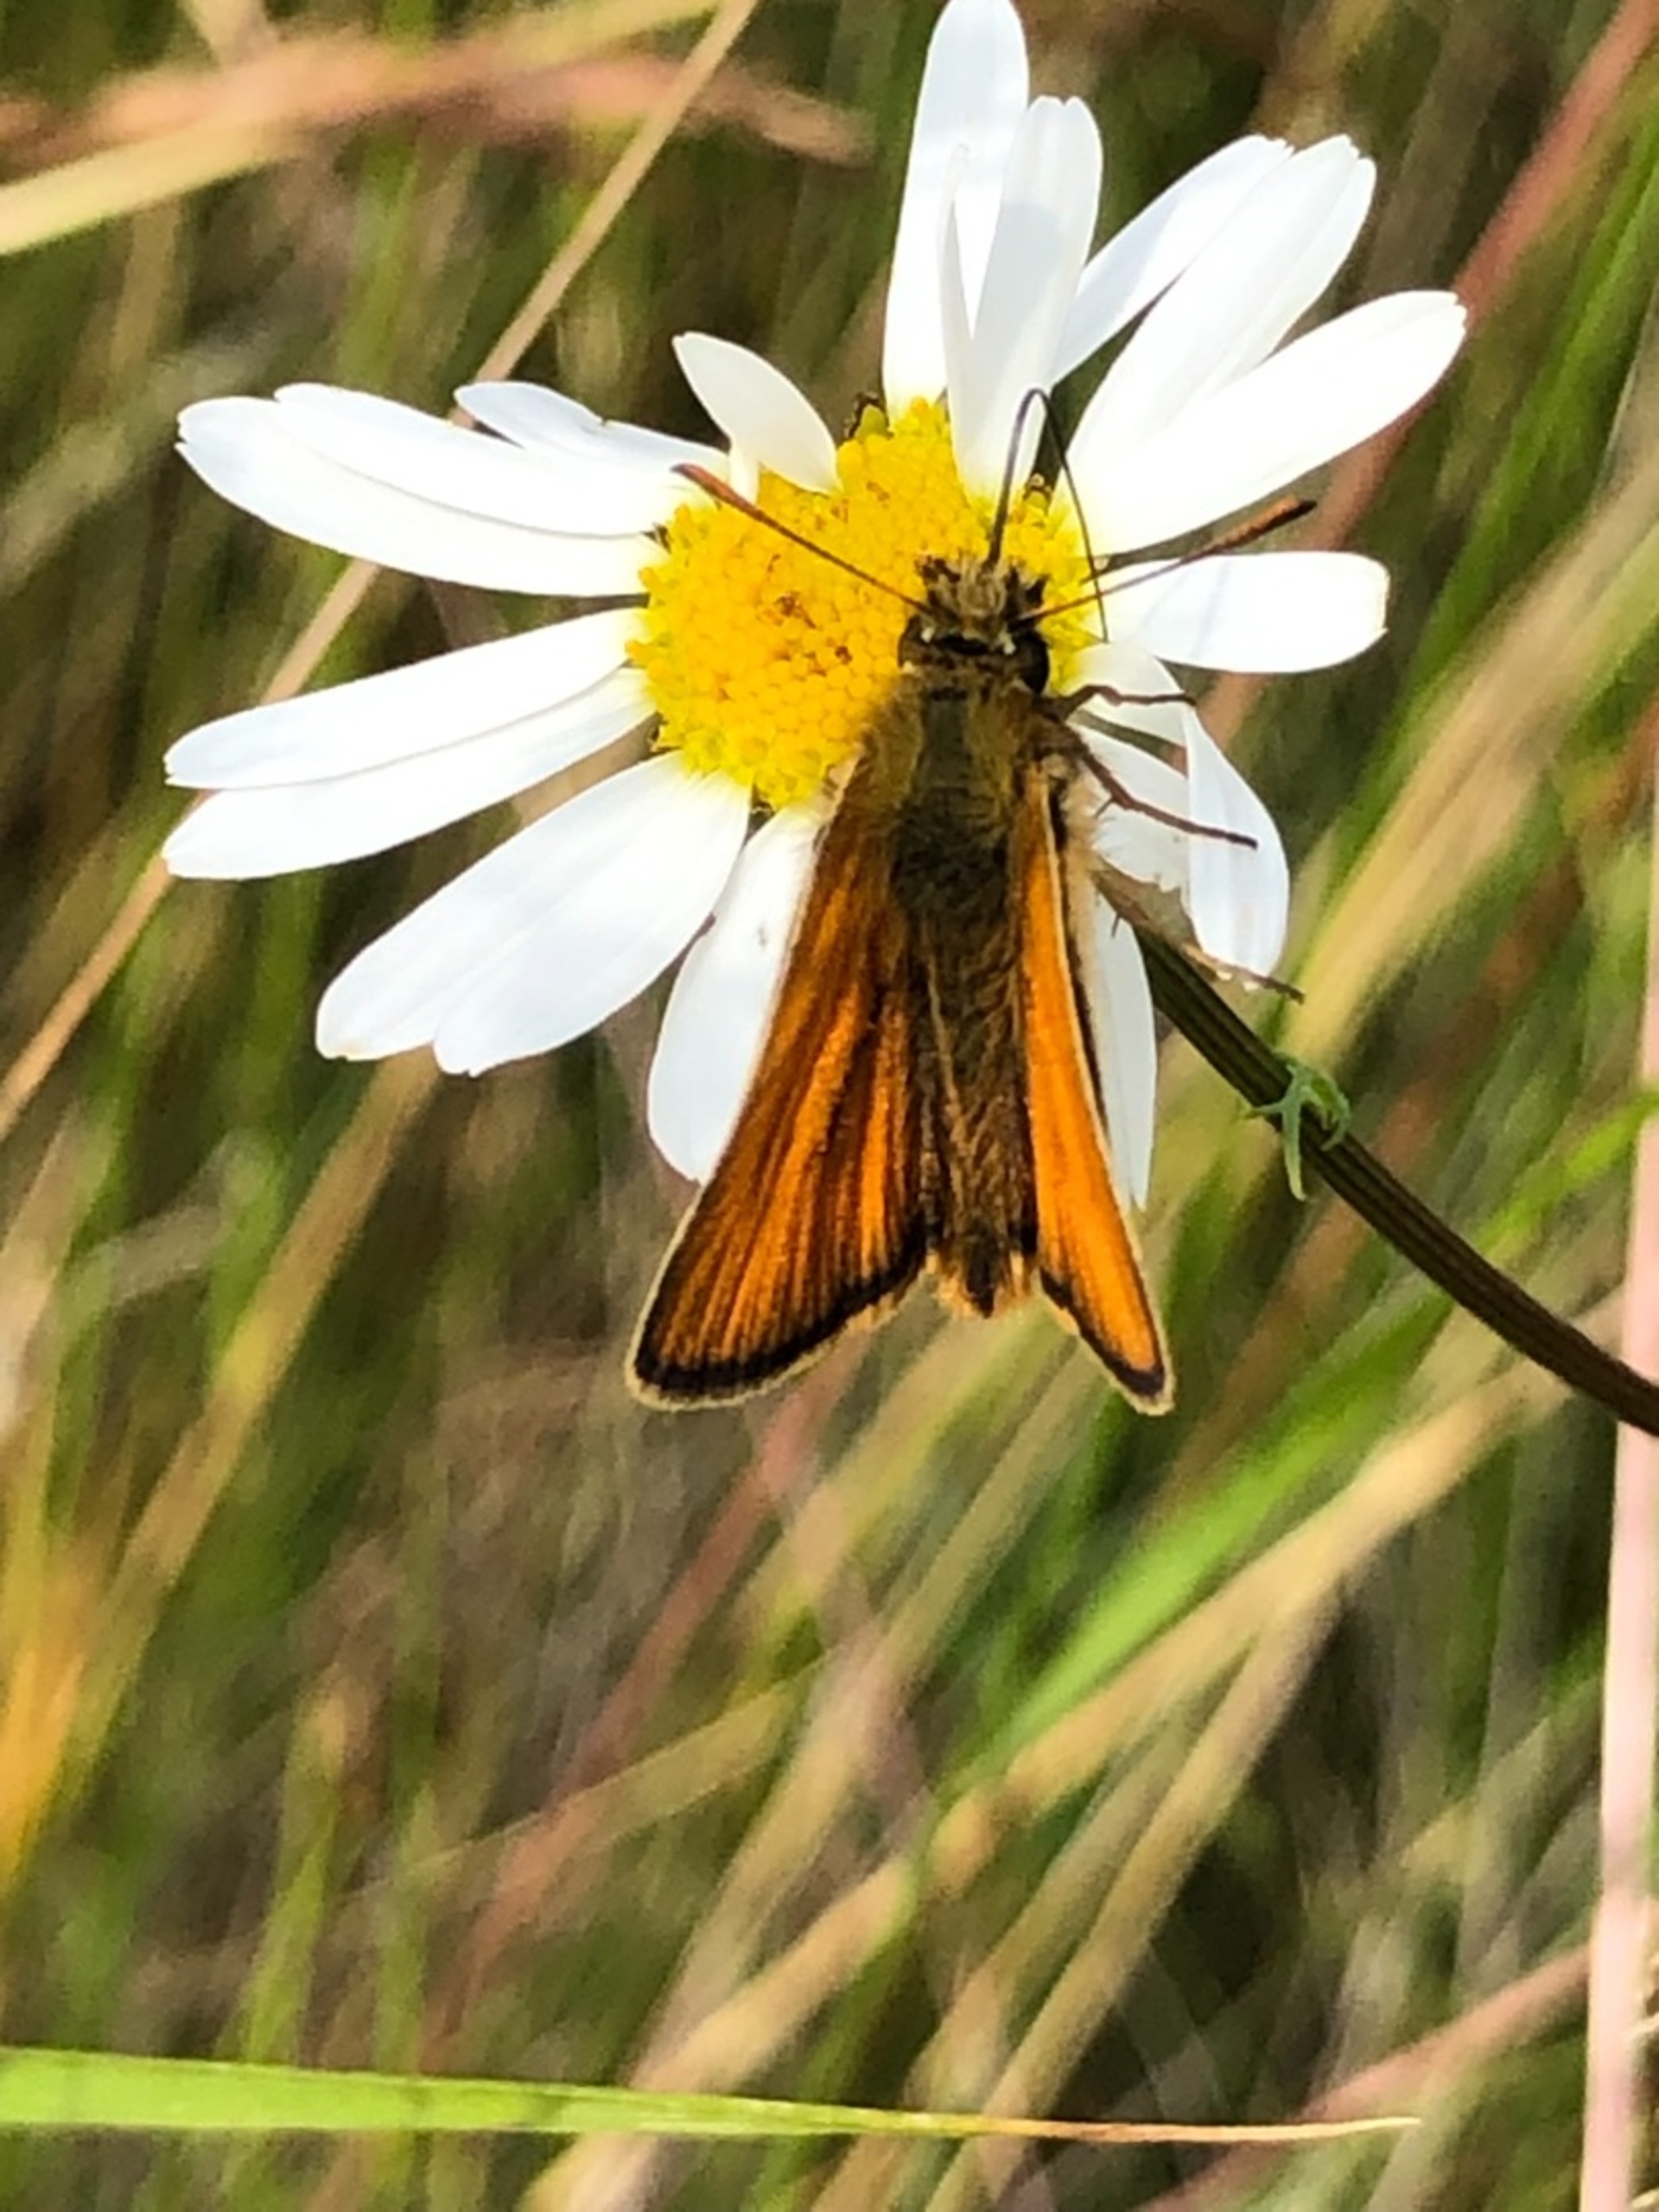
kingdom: Animalia
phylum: Arthropoda
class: Insecta
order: Lepidoptera
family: Hesperiidae
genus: Thymelicus
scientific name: Thymelicus sylvestris
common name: Skråstregbredpande
